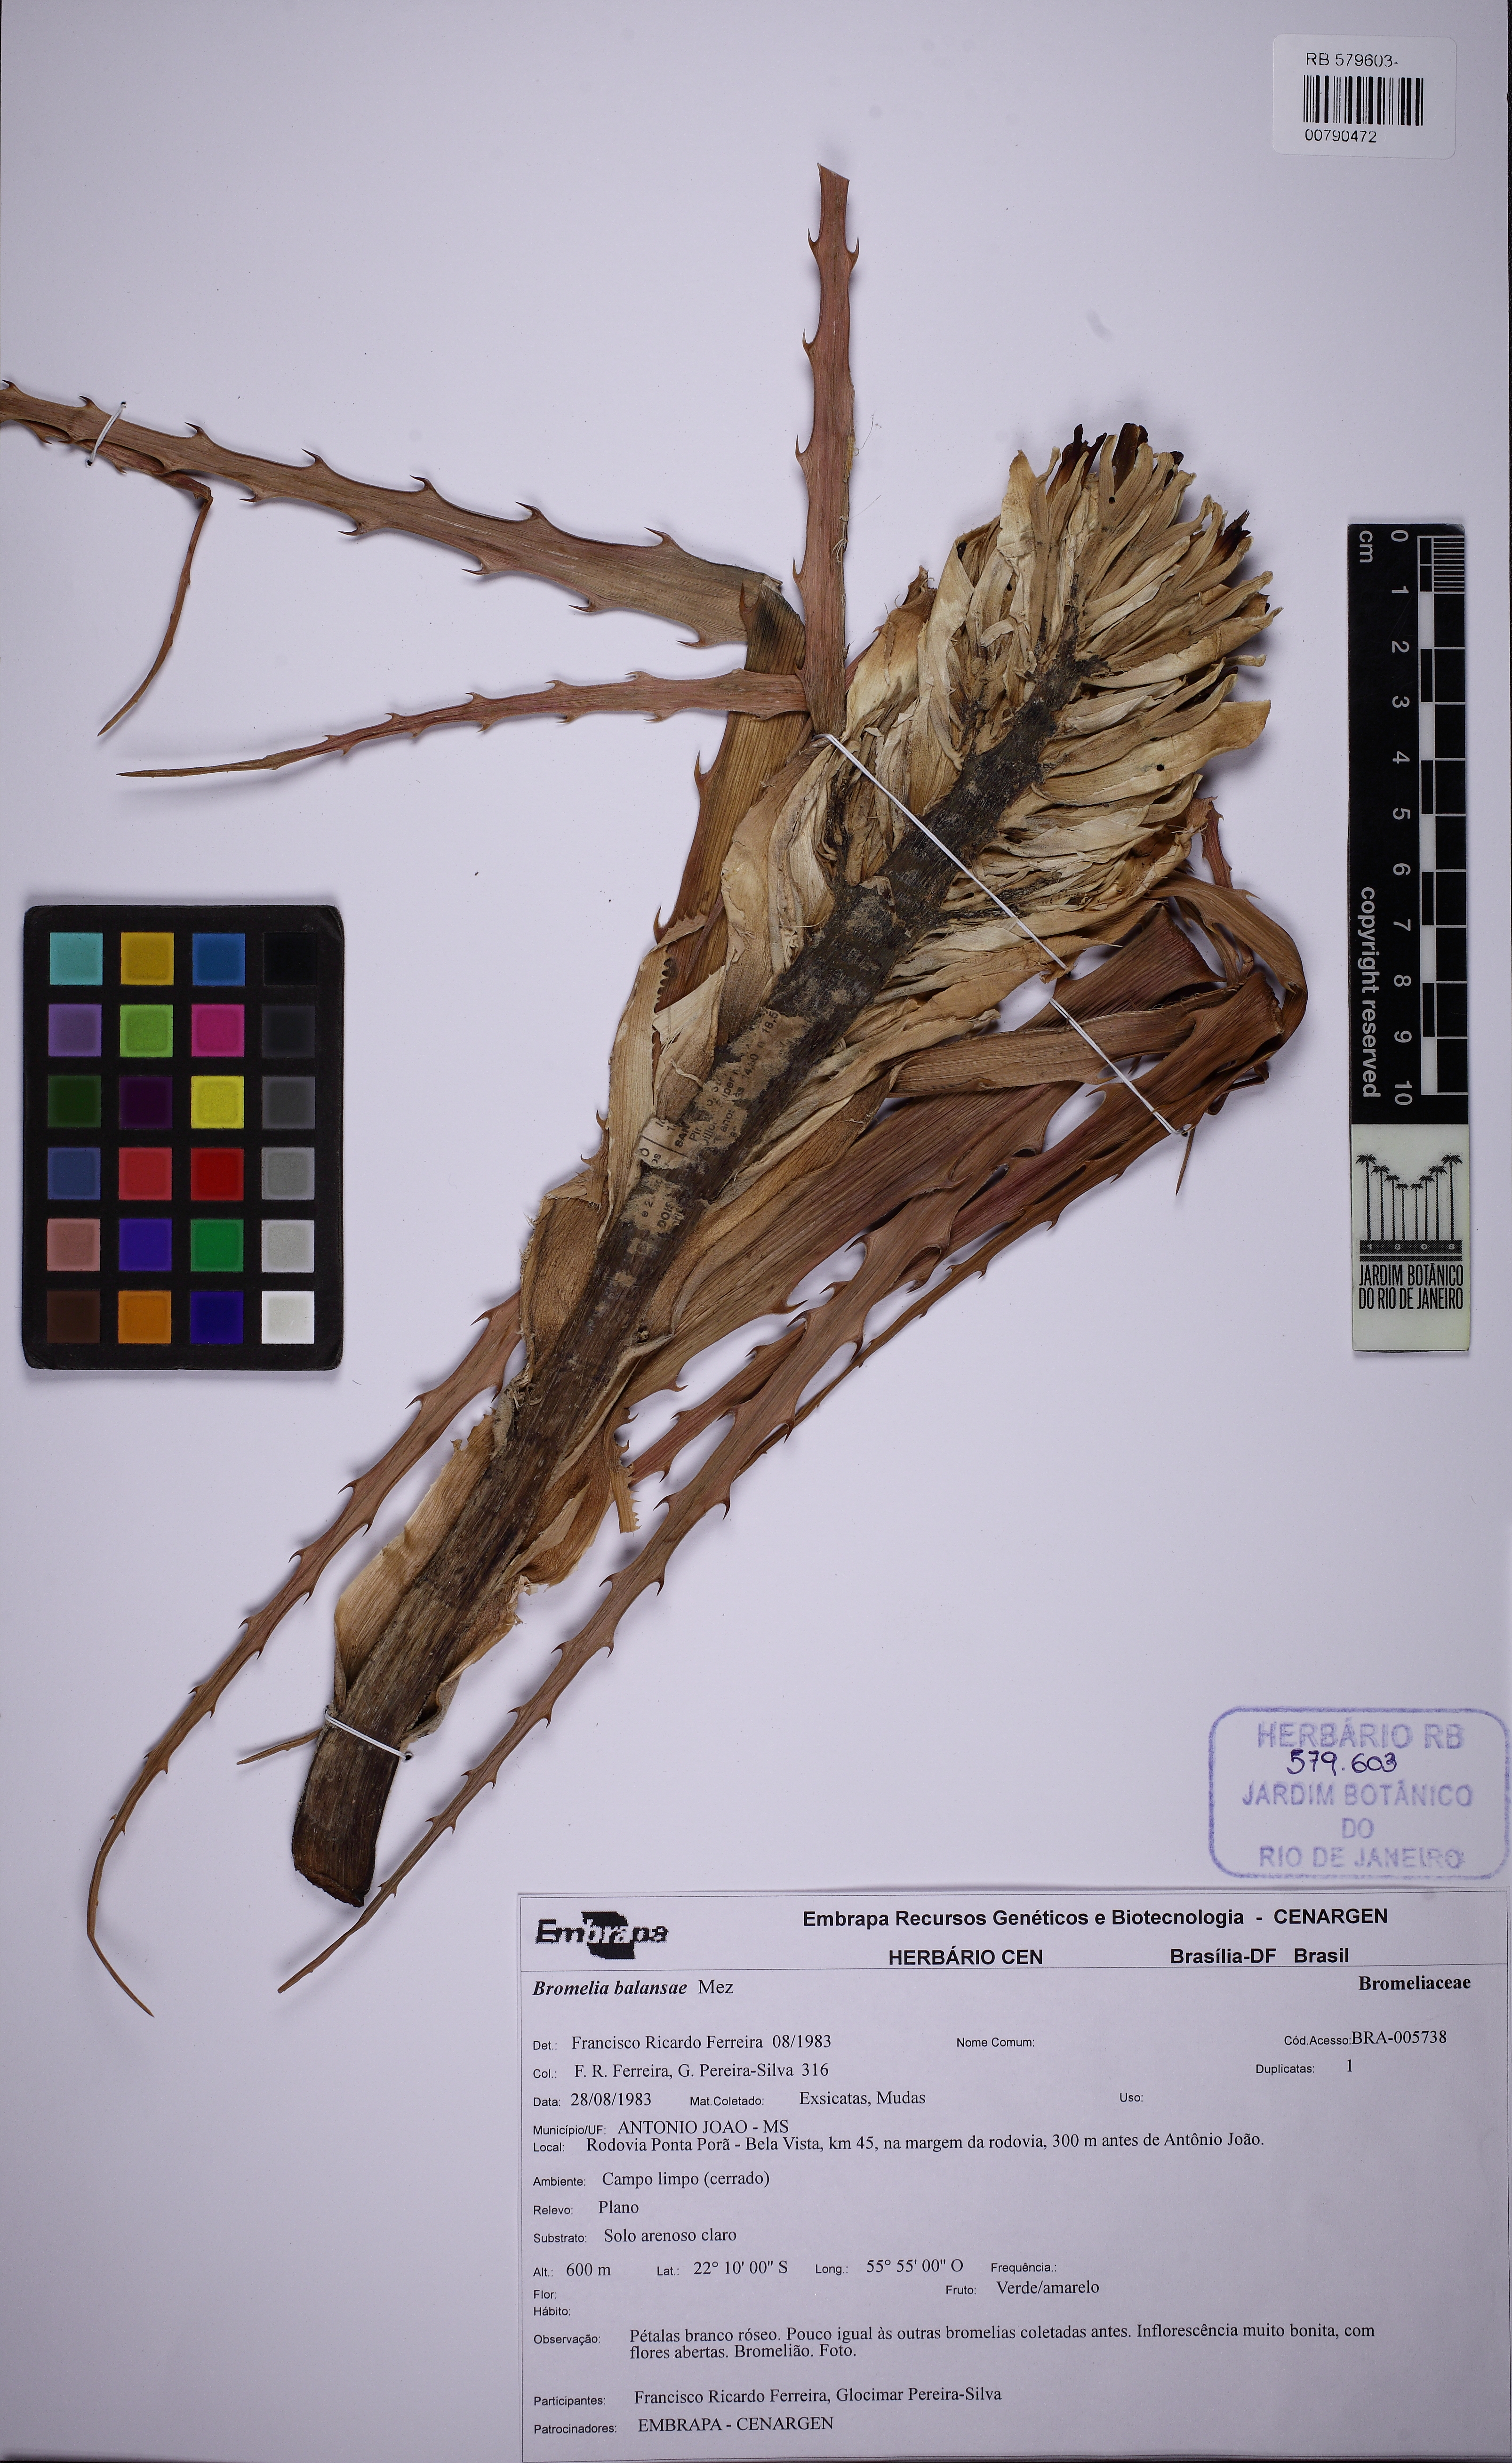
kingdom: Plantae
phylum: Tracheophyta
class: Liliopsida
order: Poales
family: Bromeliaceae
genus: Bromelia
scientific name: Bromelia balansae
